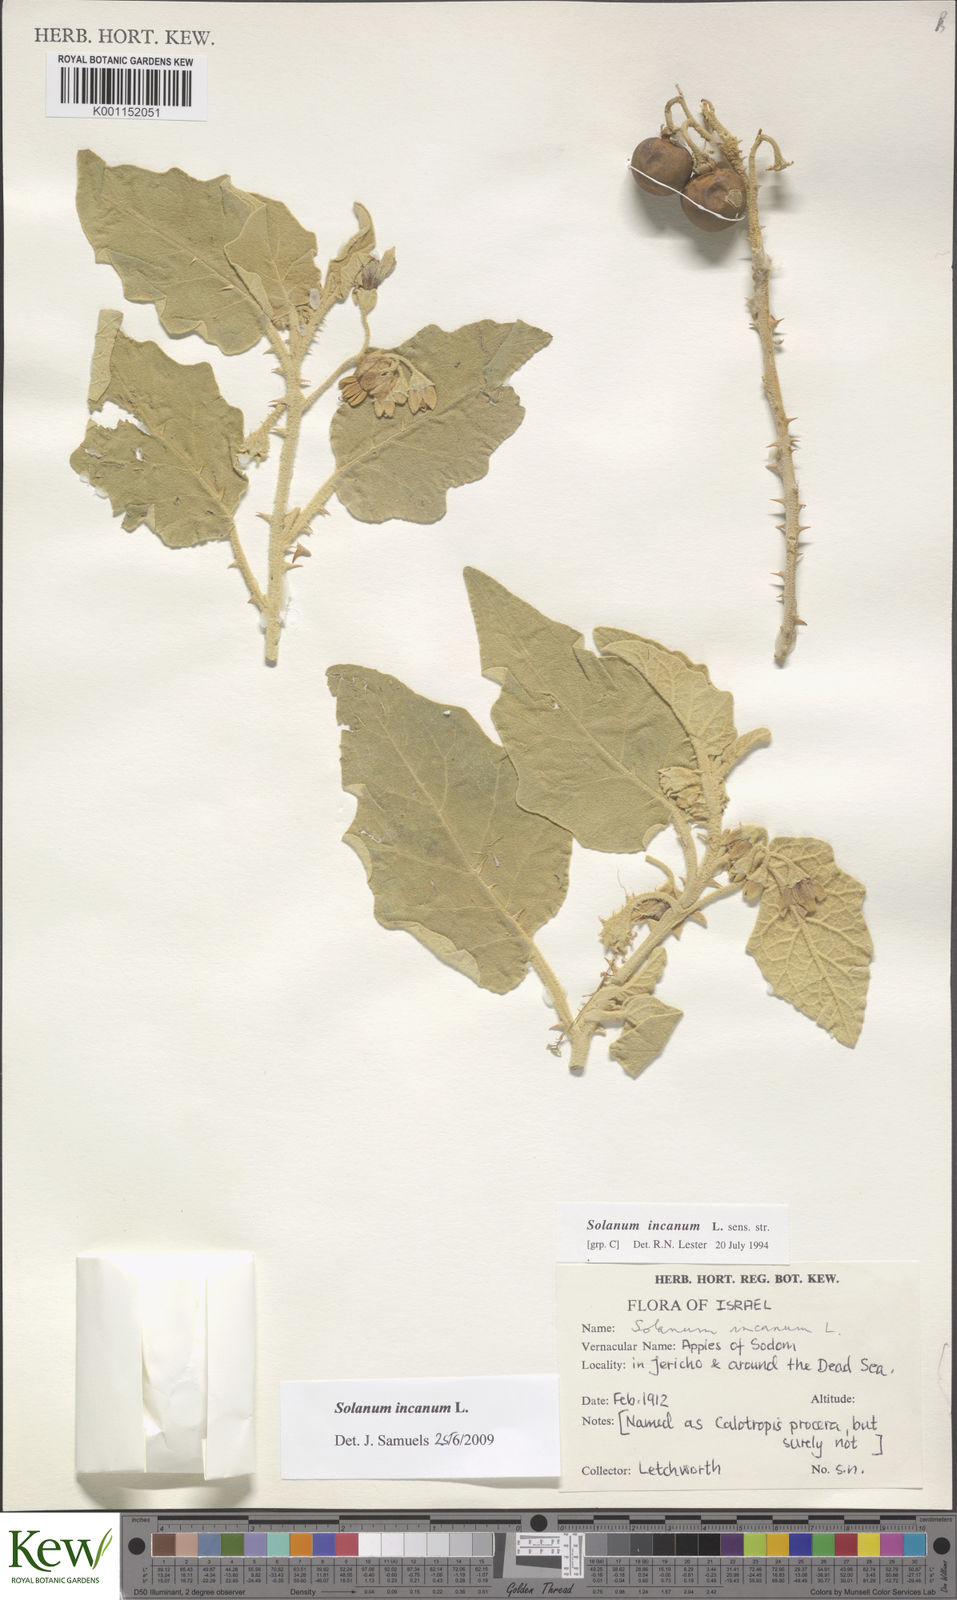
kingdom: Plantae
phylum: Tracheophyta
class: Magnoliopsida
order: Solanales
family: Solanaceae
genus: Solanum
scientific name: Solanum incanum
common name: Bitter apple
